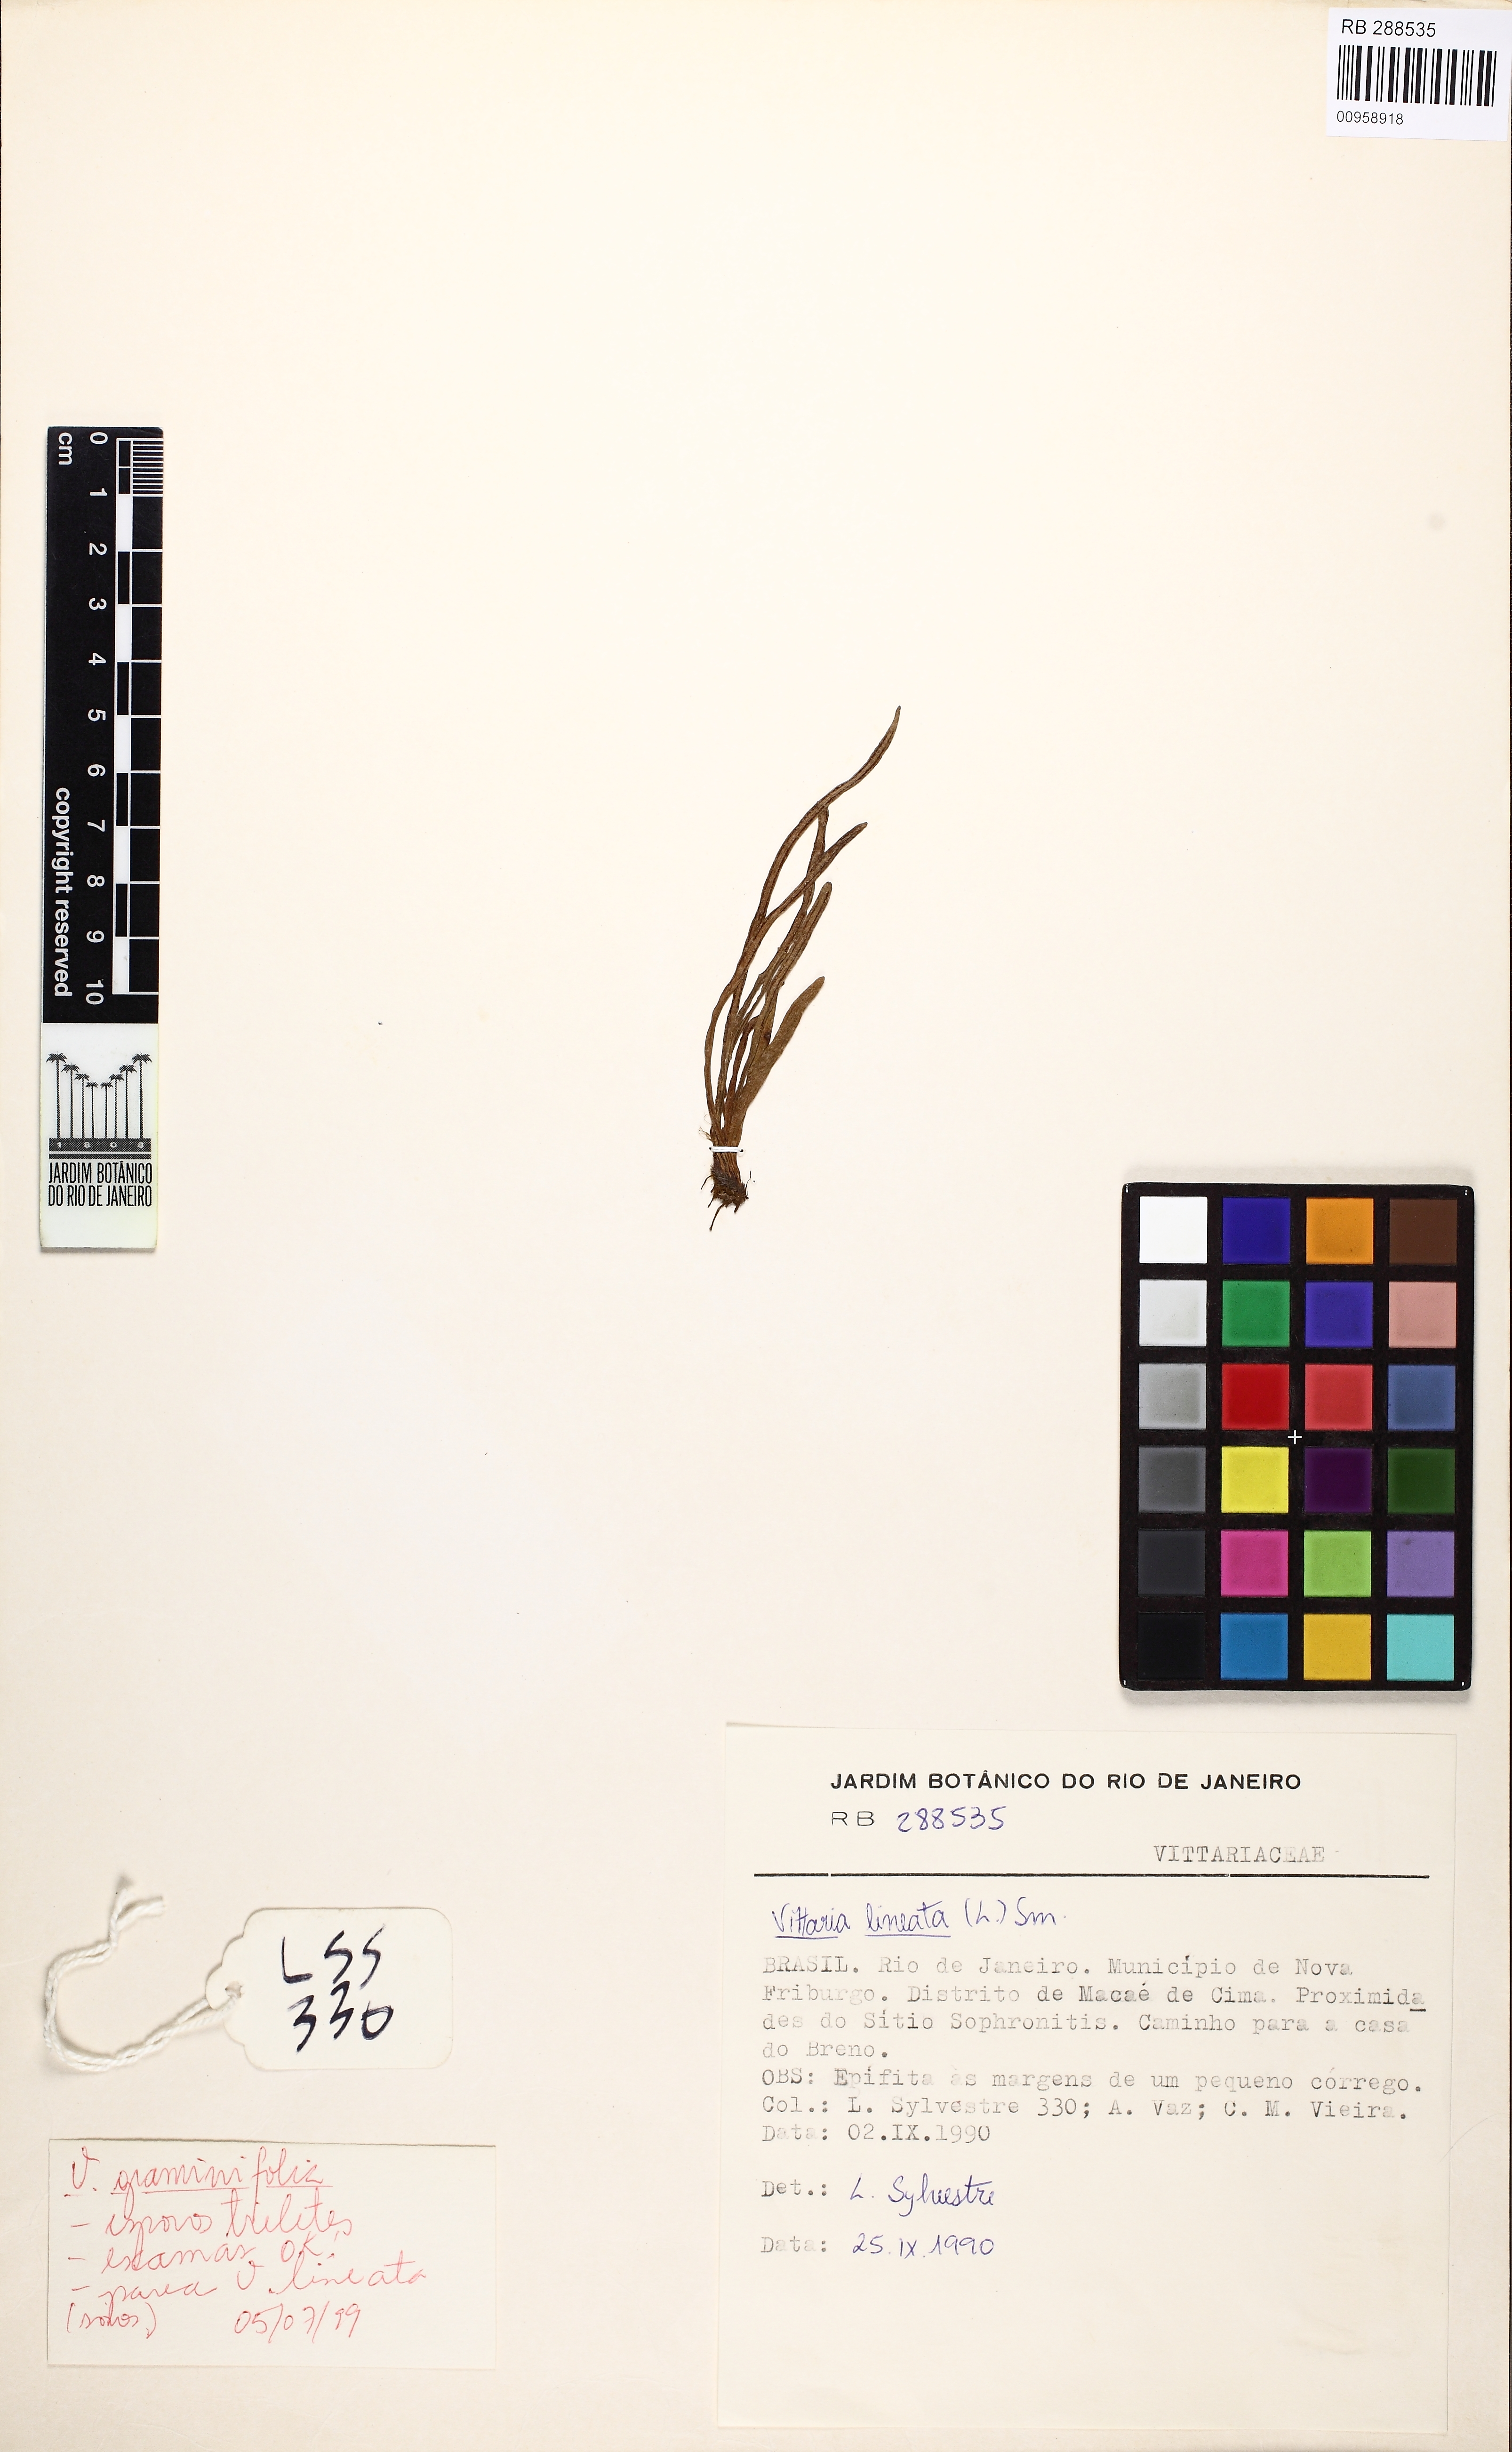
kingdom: Plantae
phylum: Tracheophyta
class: Polypodiopsida
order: Polypodiales
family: Pteridaceae
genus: Vittaria
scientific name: Vittaria lineata
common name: Shoestring fern
